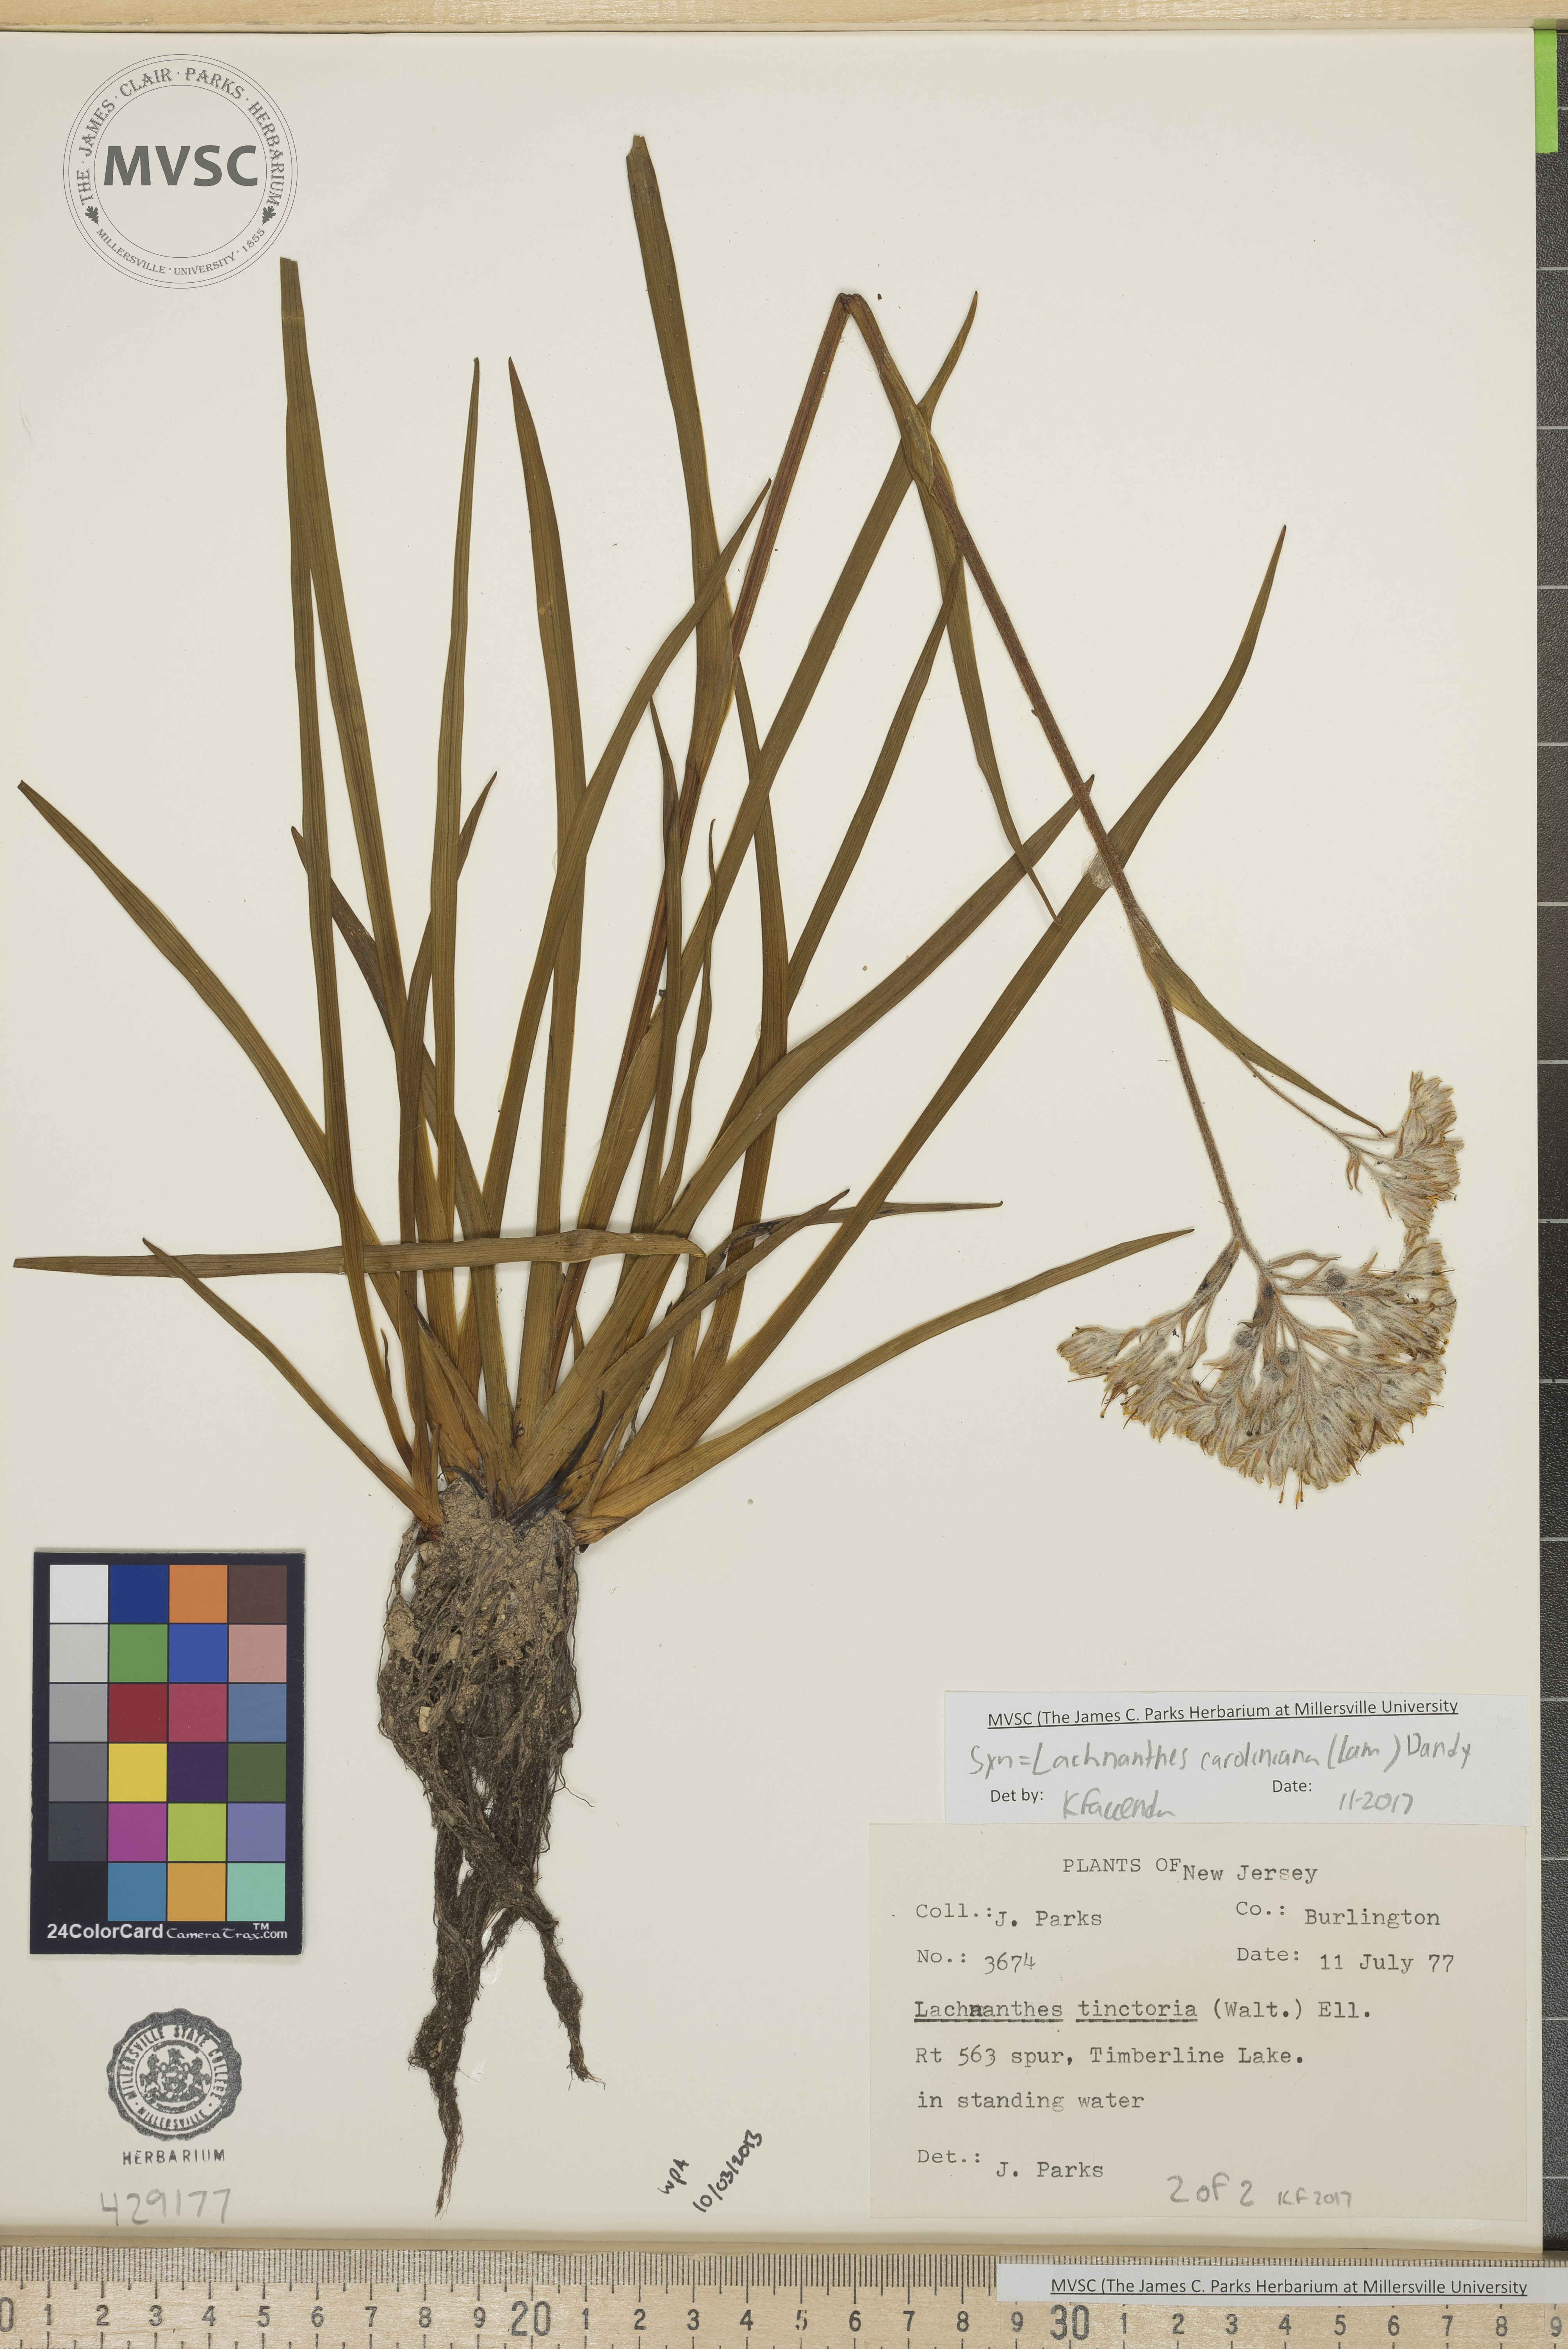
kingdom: Plantae
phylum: Tracheophyta
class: Liliopsida
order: Commelinales
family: Haemodoraceae
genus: Lachnanthes
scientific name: Lachnanthes caroliniana
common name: Carolina redroot
